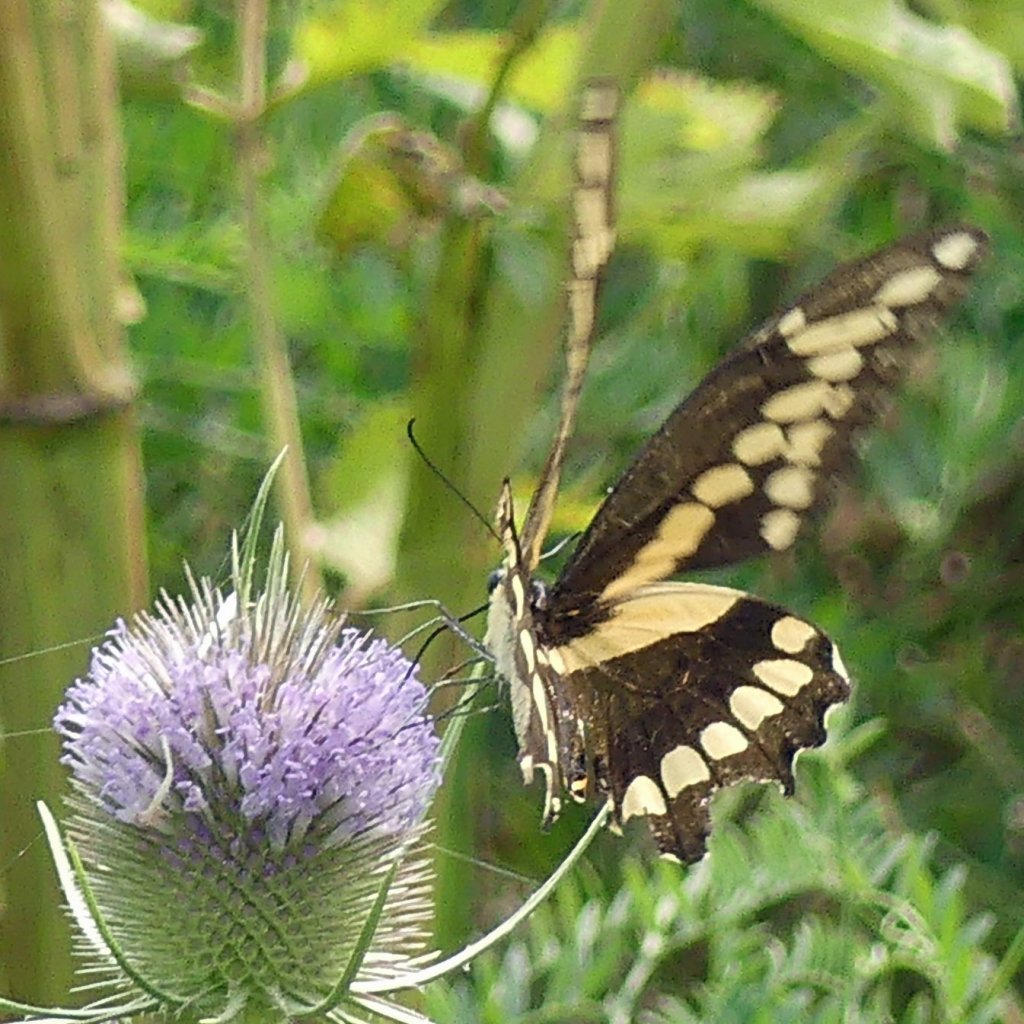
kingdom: Animalia
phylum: Arthropoda
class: Insecta
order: Lepidoptera
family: Papilionidae
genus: Papilio
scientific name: Papilio cresphontes
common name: Eastern Giant Swallowtail
